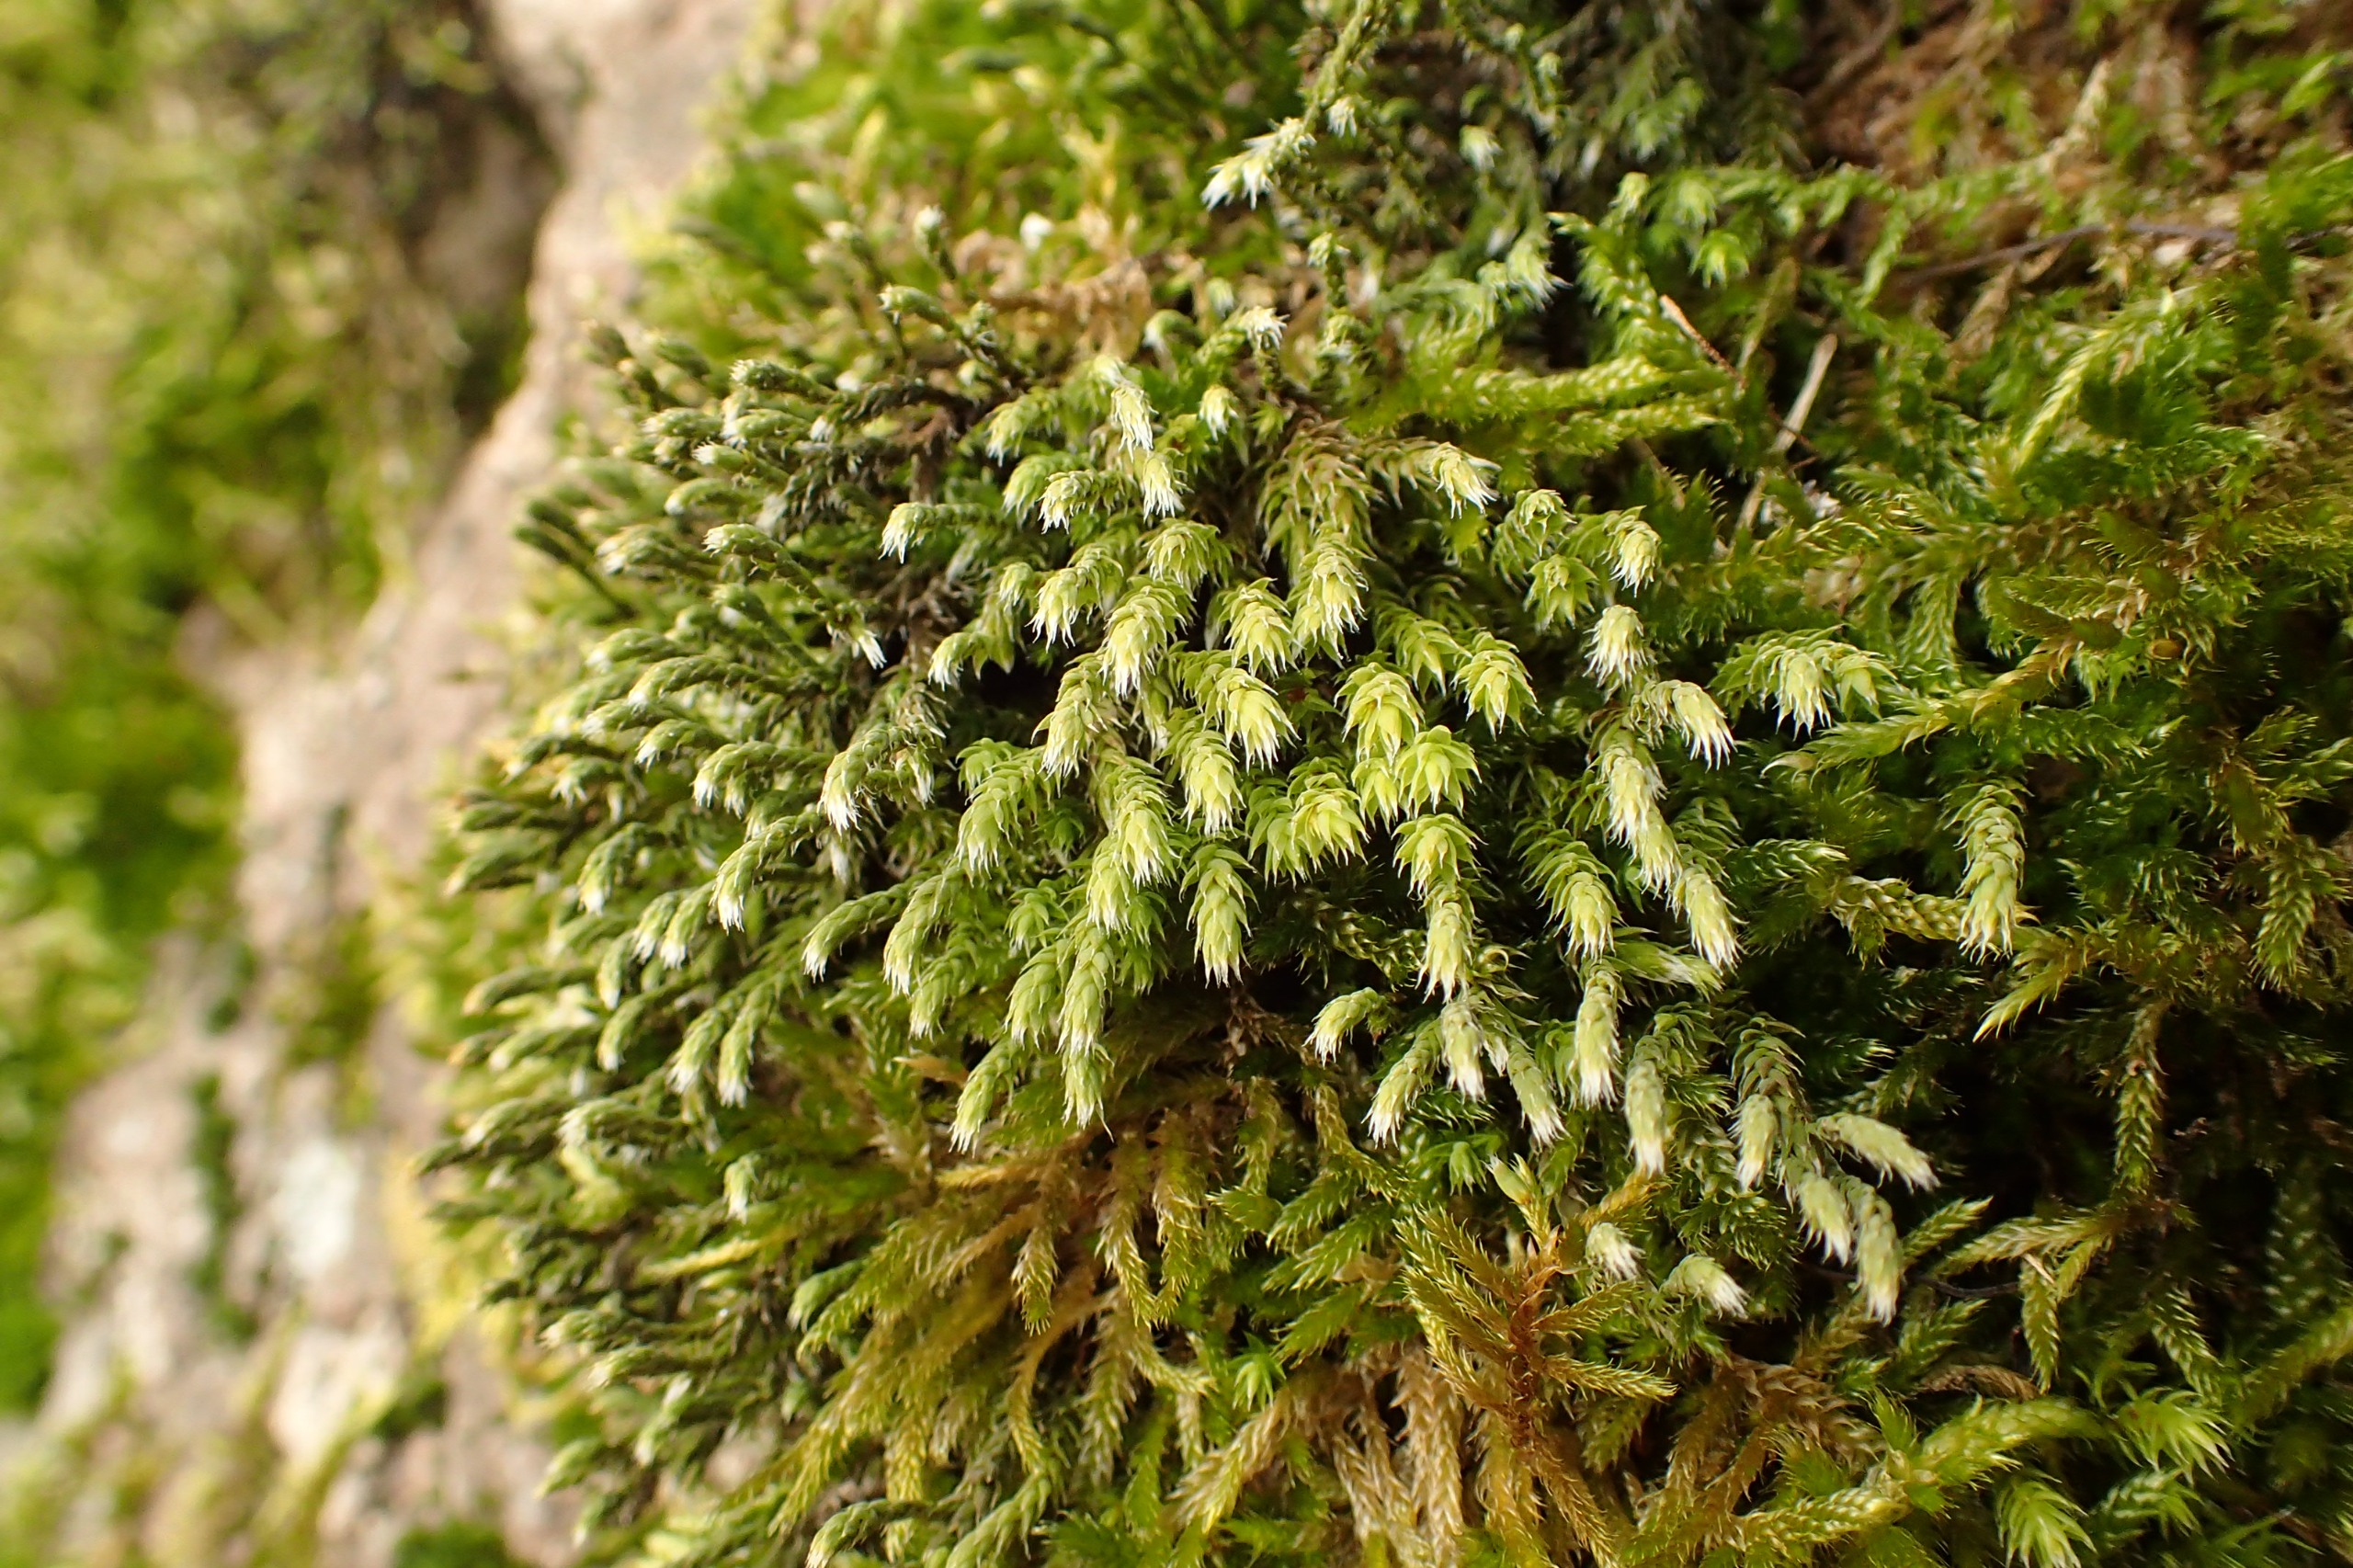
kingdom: Plantae
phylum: Bryophyta
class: Bryopsida
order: Hedwigiales
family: Hedwigiaceae
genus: Hedwigia
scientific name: Hedwigia ciliata
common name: Hvidspidset hedwigia
